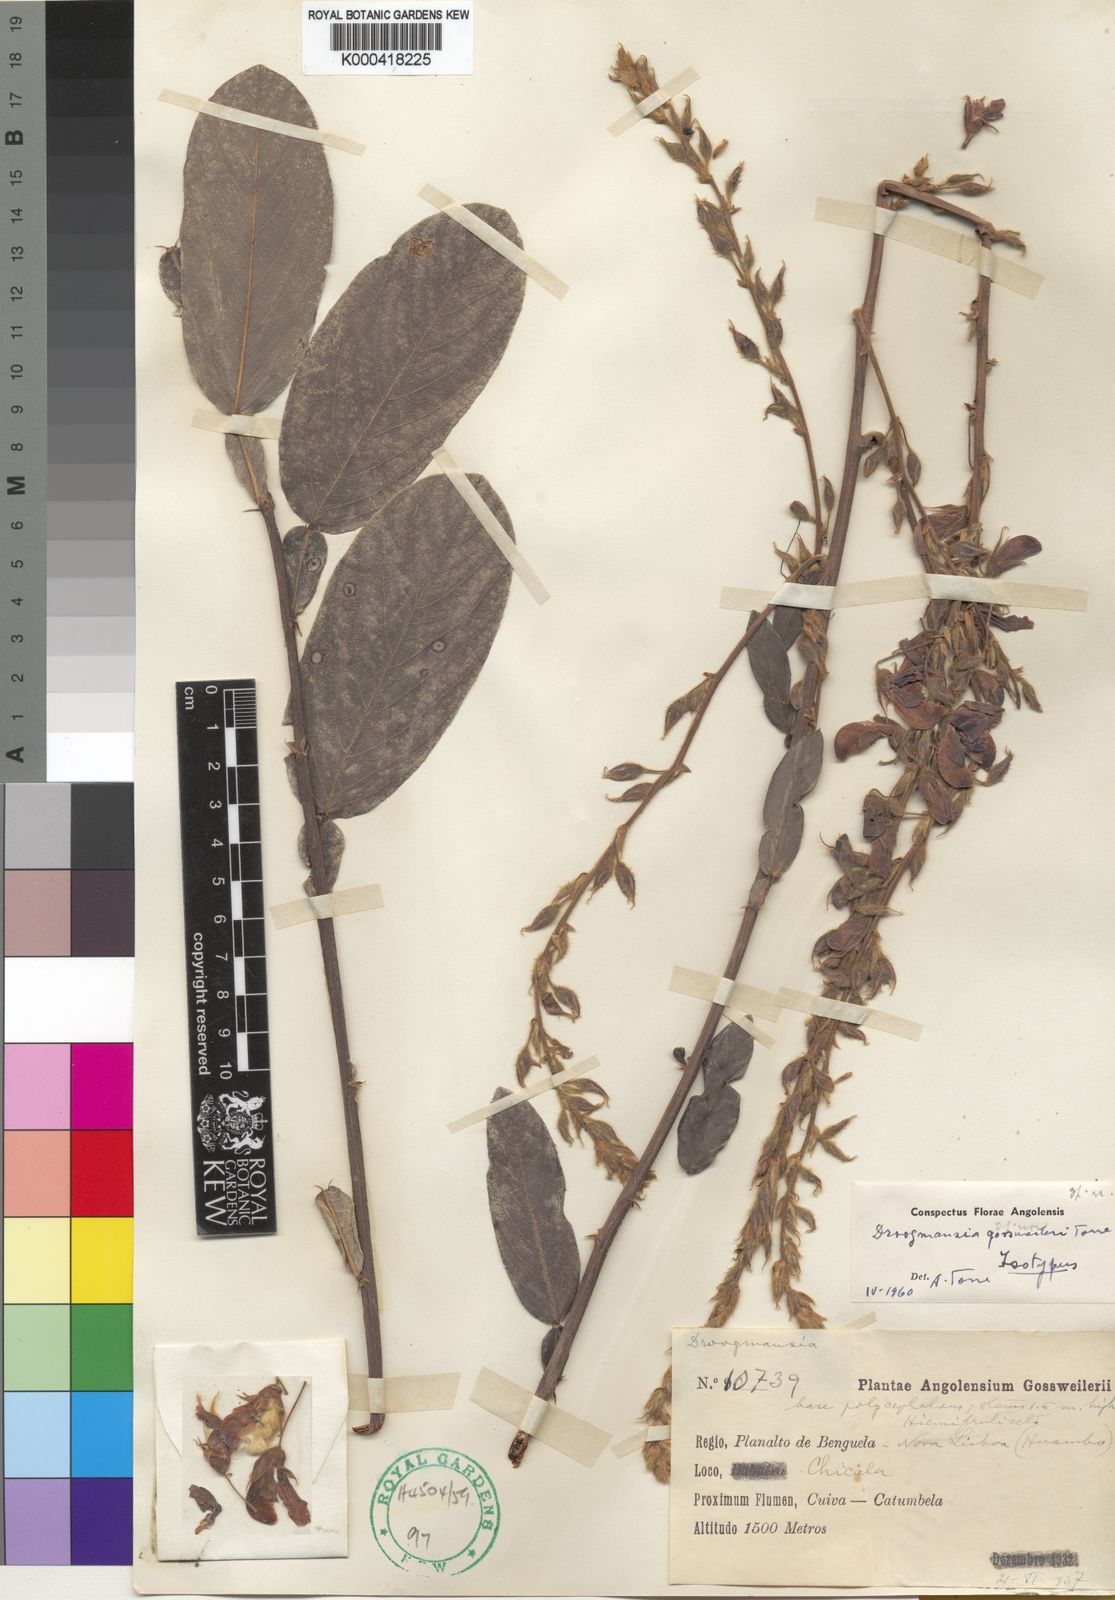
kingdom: Plantae
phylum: Tracheophyta
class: Magnoliopsida
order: Fabales
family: Fabaceae
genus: Droogmansia
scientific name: Droogmansia gossweileri
